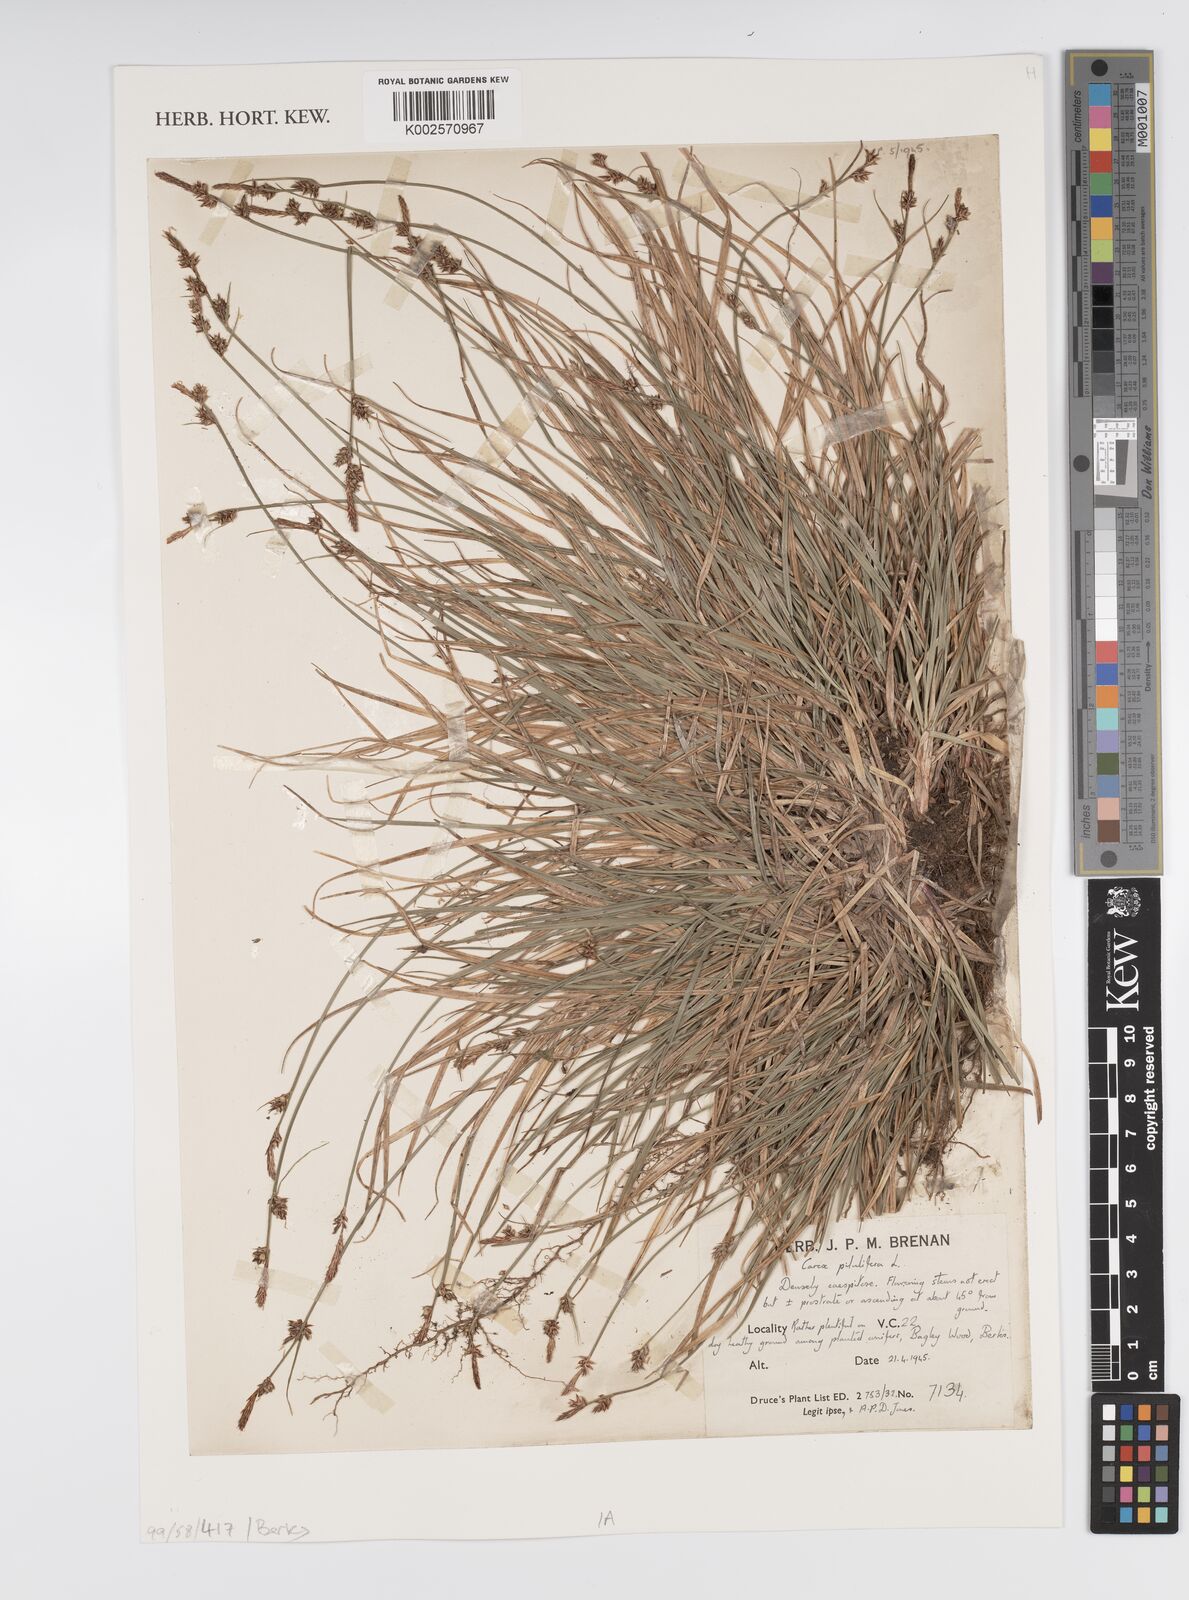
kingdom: Plantae
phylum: Tracheophyta
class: Liliopsida
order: Poales
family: Cyperaceae
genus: Carex
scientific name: Carex pilulifera
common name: Pill sedge
